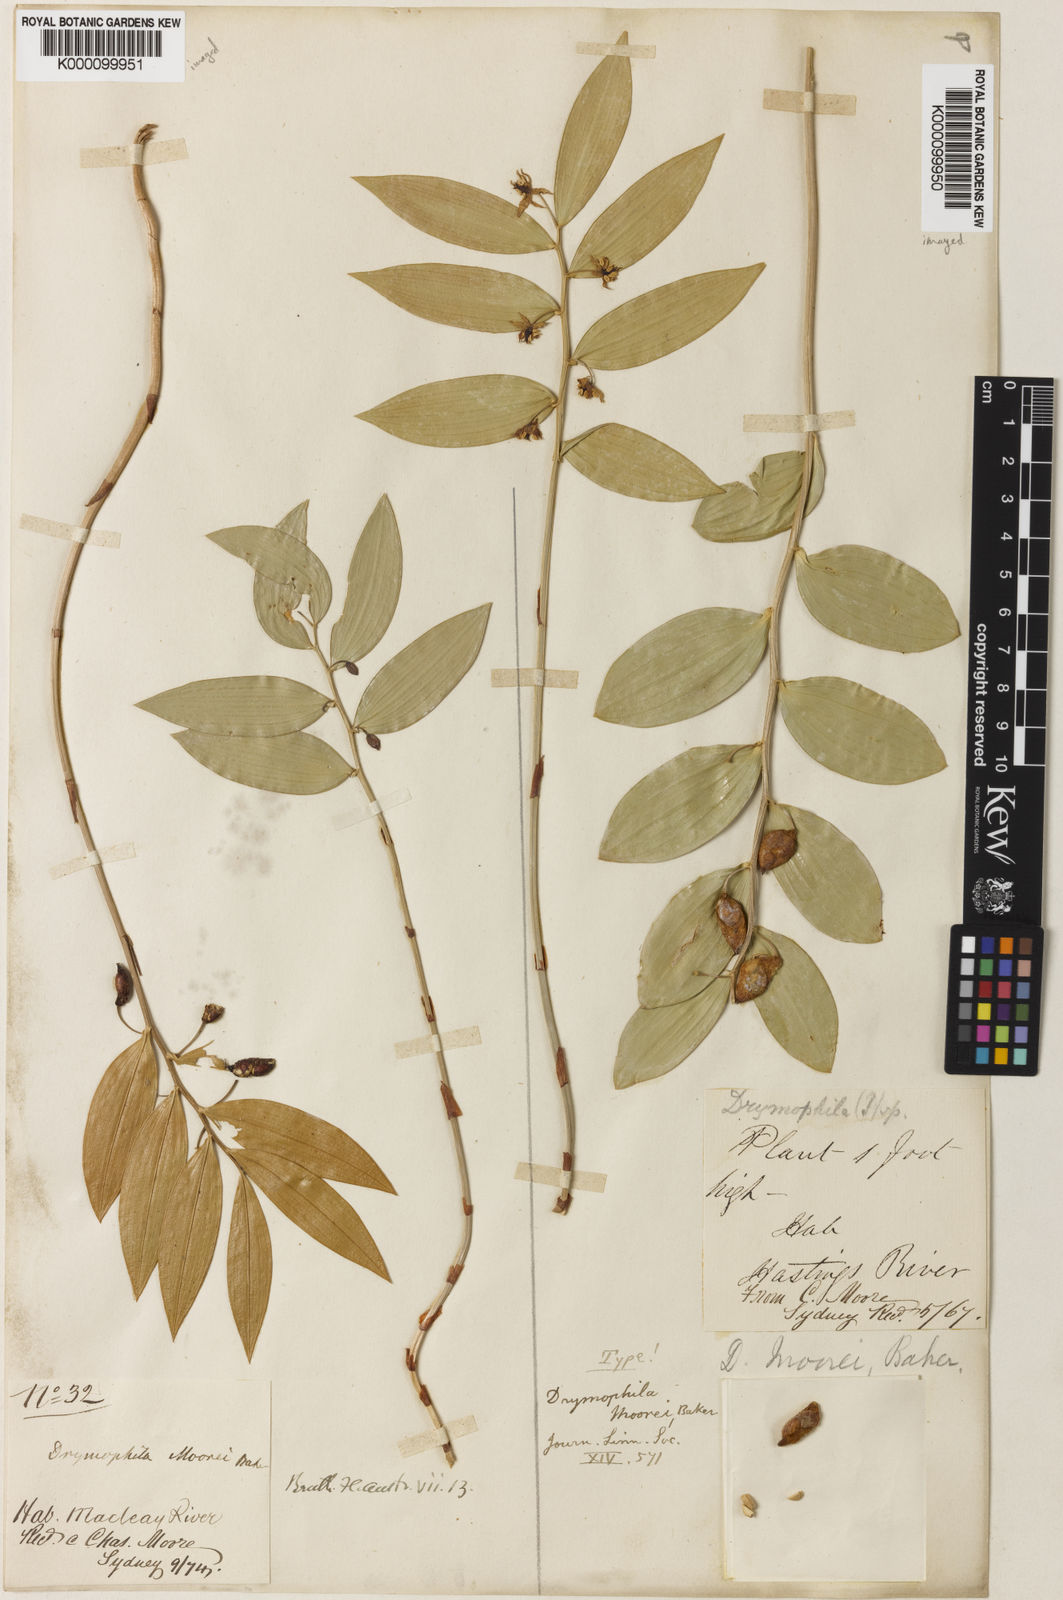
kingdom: Plantae
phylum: Tracheophyta
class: Liliopsida
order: Liliales
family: Alstroemeriaceae
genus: Drymophila
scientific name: Drymophila moorei
